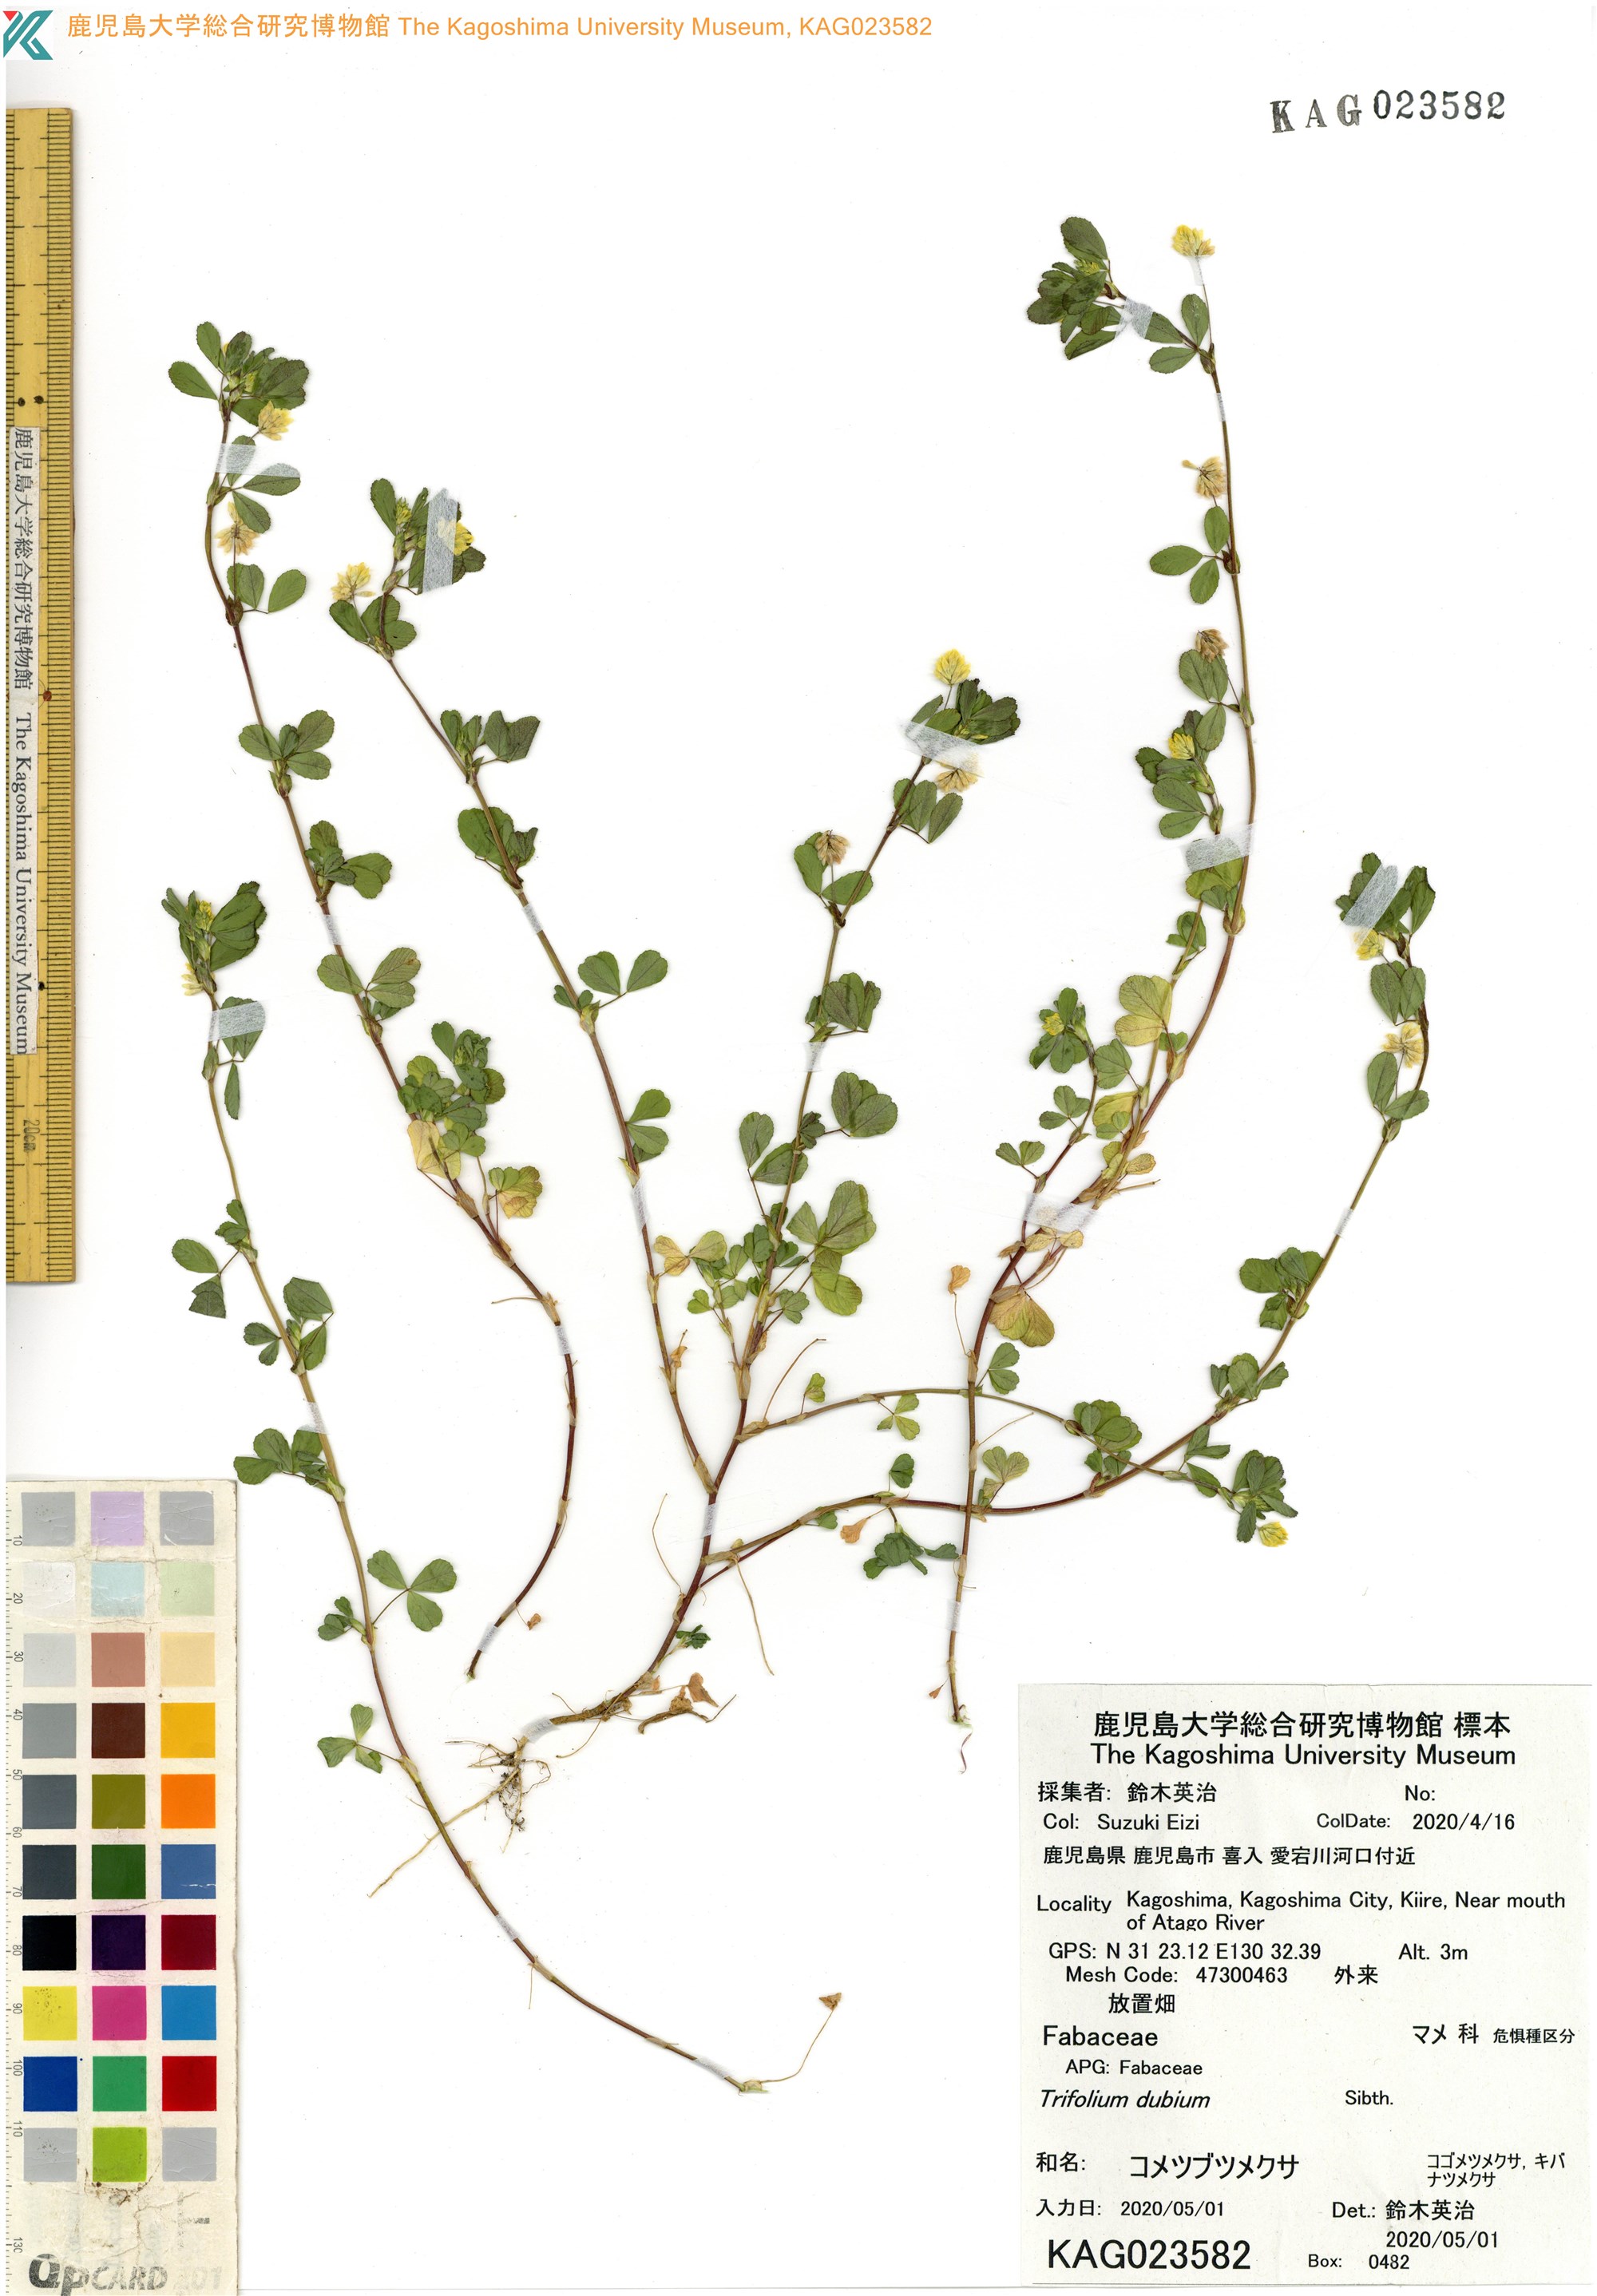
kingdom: Plantae
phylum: Tracheophyta
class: Magnoliopsida
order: Fabales
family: Fabaceae
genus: Trifolium
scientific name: Trifolium dubium
